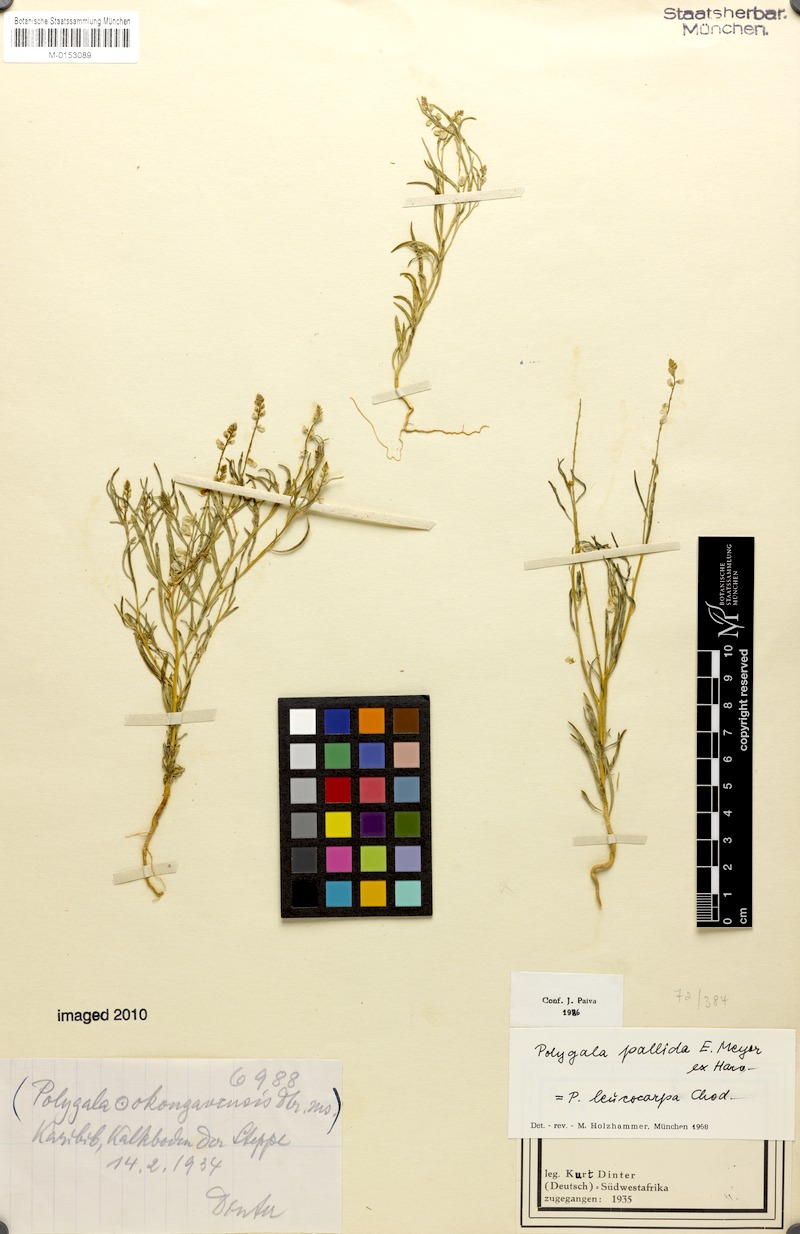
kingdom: Plantae
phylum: Tracheophyta
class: Magnoliopsida
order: Fabales
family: Polygalaceae
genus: Polygala
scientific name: Polygala pallida
